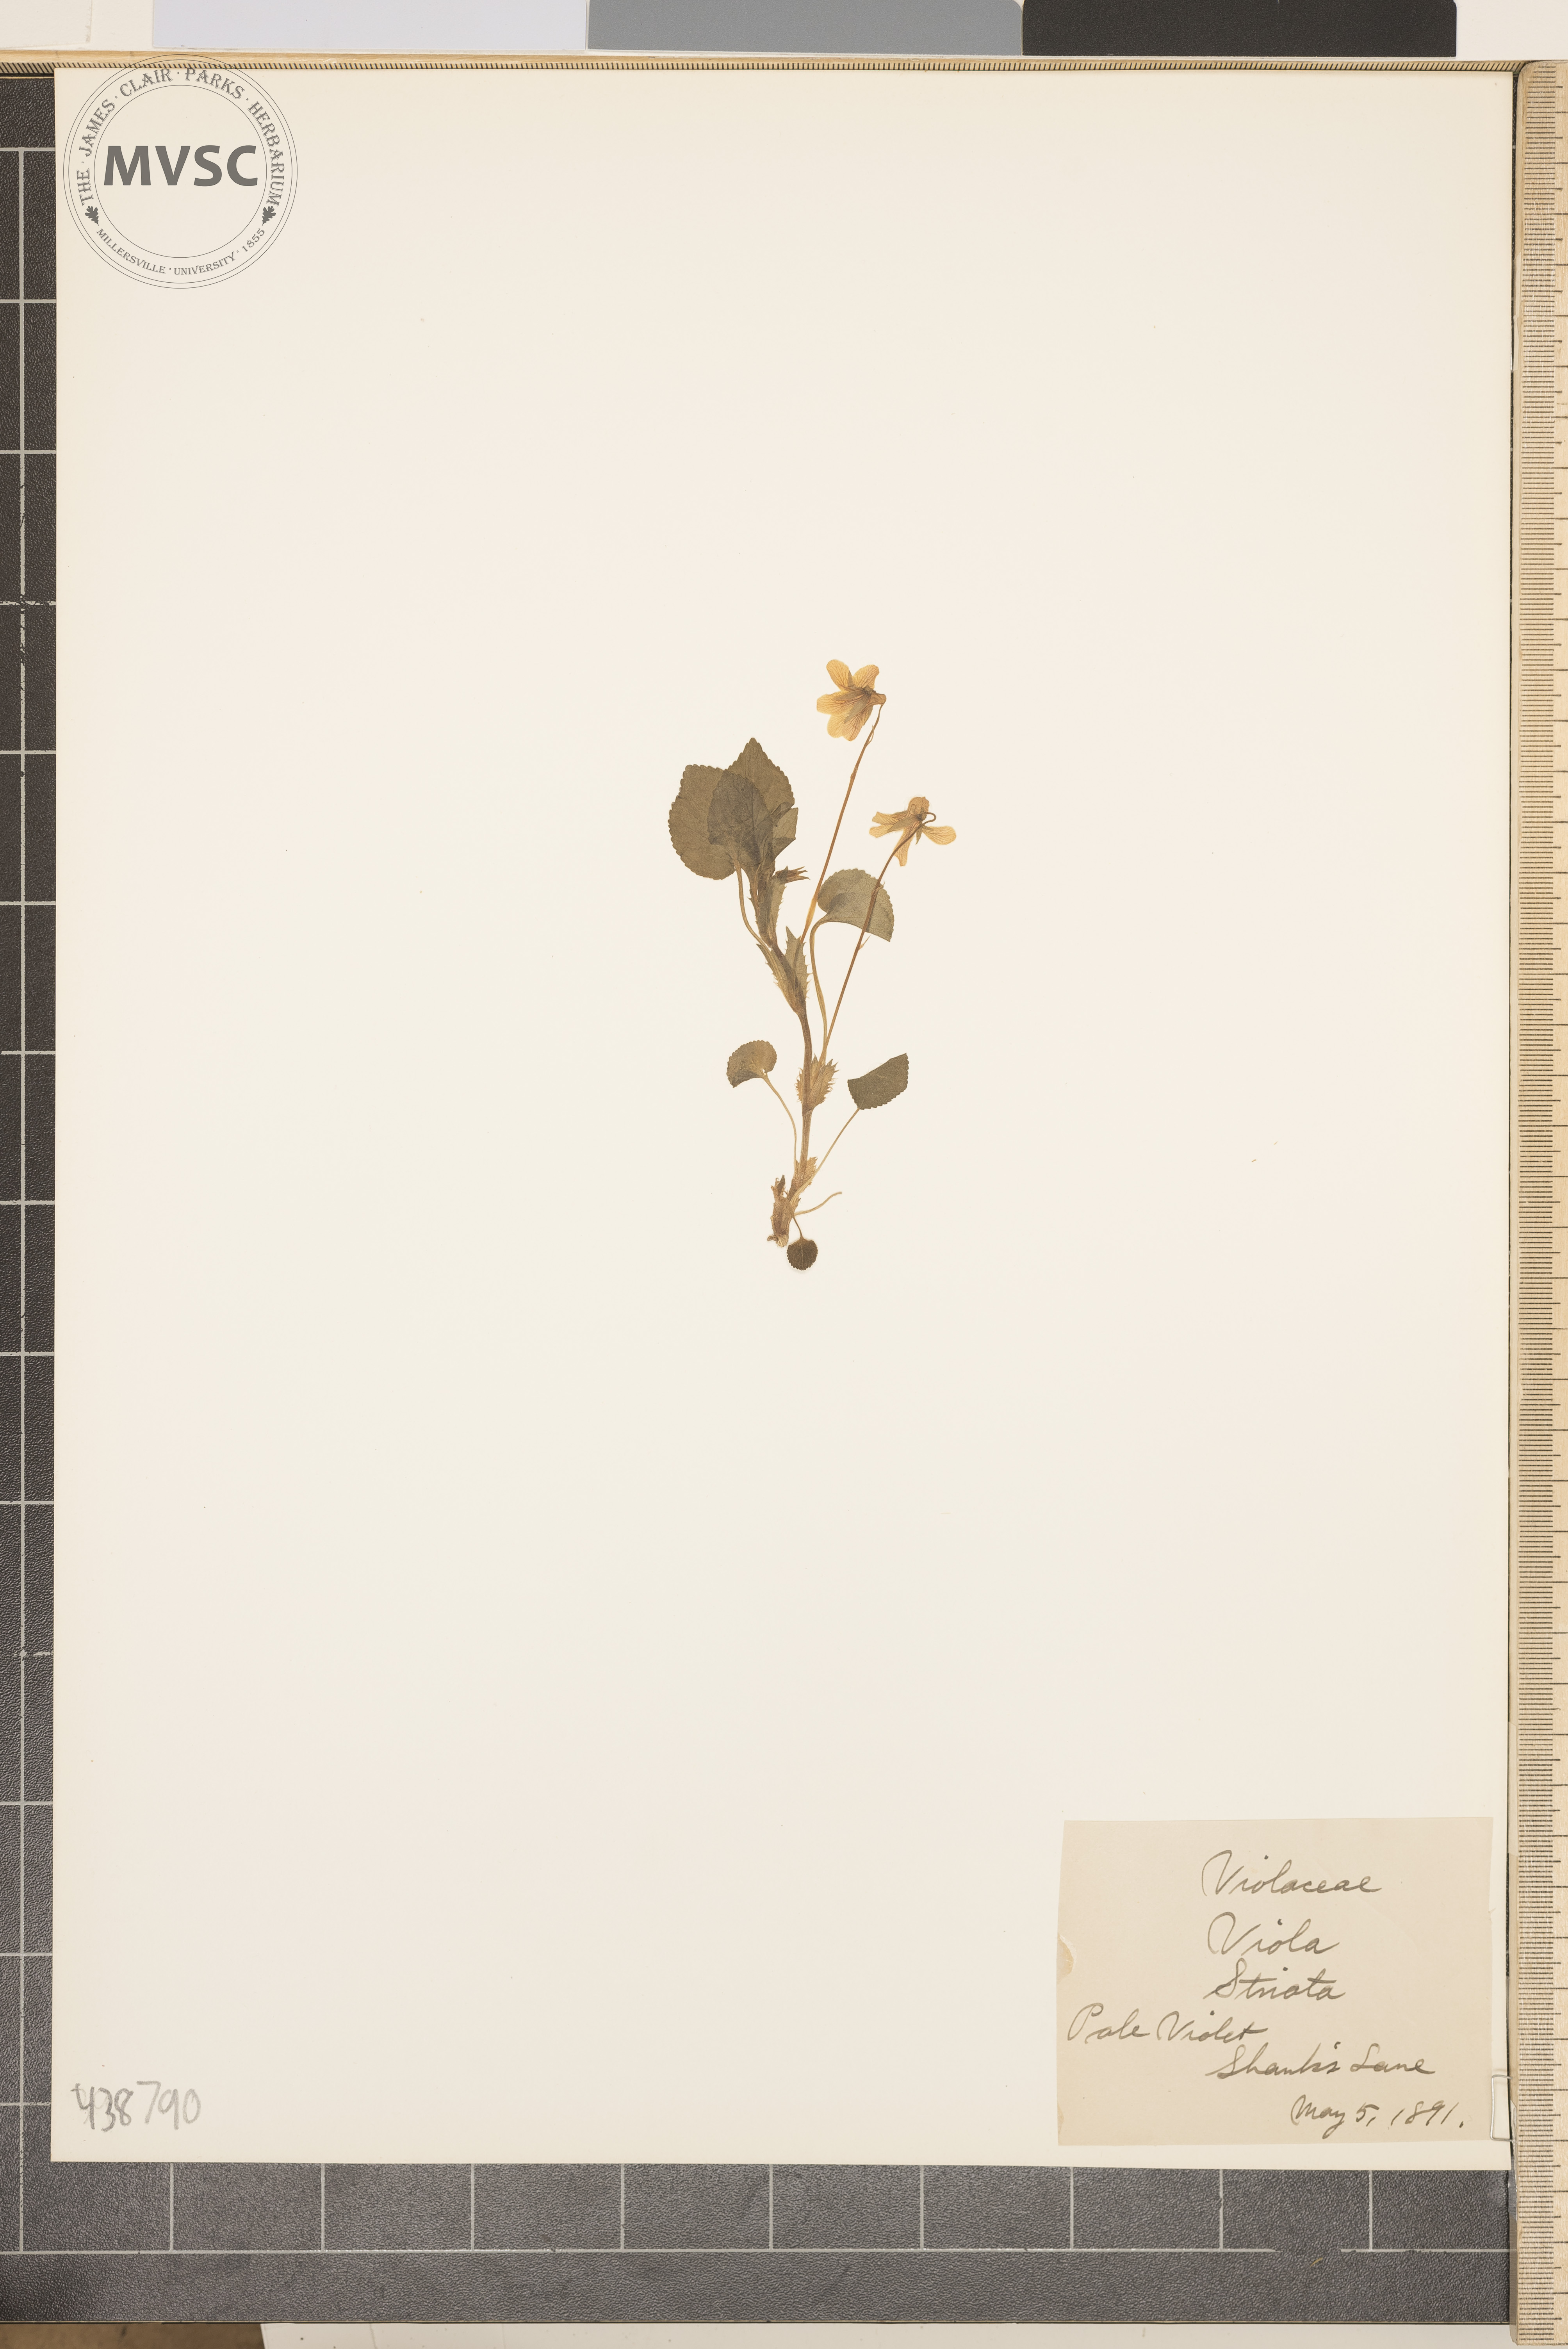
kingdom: Plantae
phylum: Tracheophyta
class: Magnoliopsida
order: Malpighiales
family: Violaceae
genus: Viola
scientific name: Viola striata
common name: Pale violet
